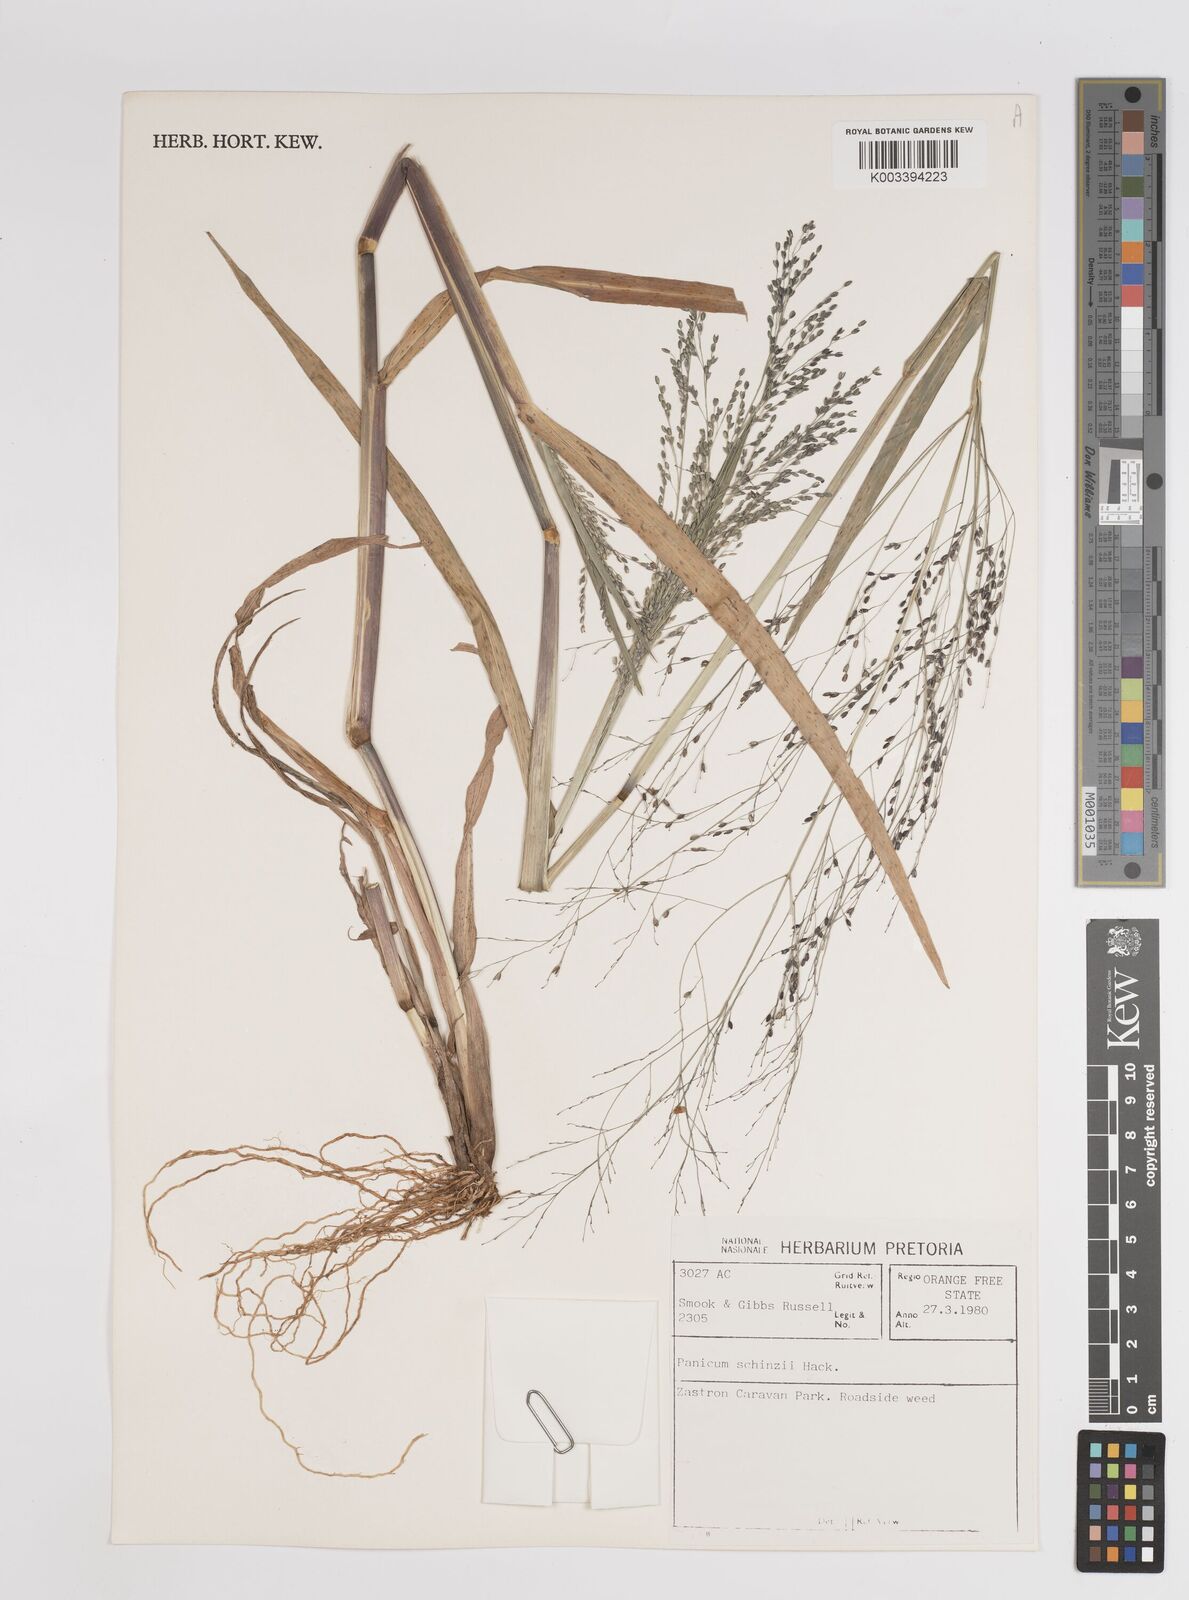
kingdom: Plantae
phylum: Tracheophyta
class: Liliopsida
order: Poales
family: Poaceae
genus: Panicum
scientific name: Panicum schinzii
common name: Sweet grass
